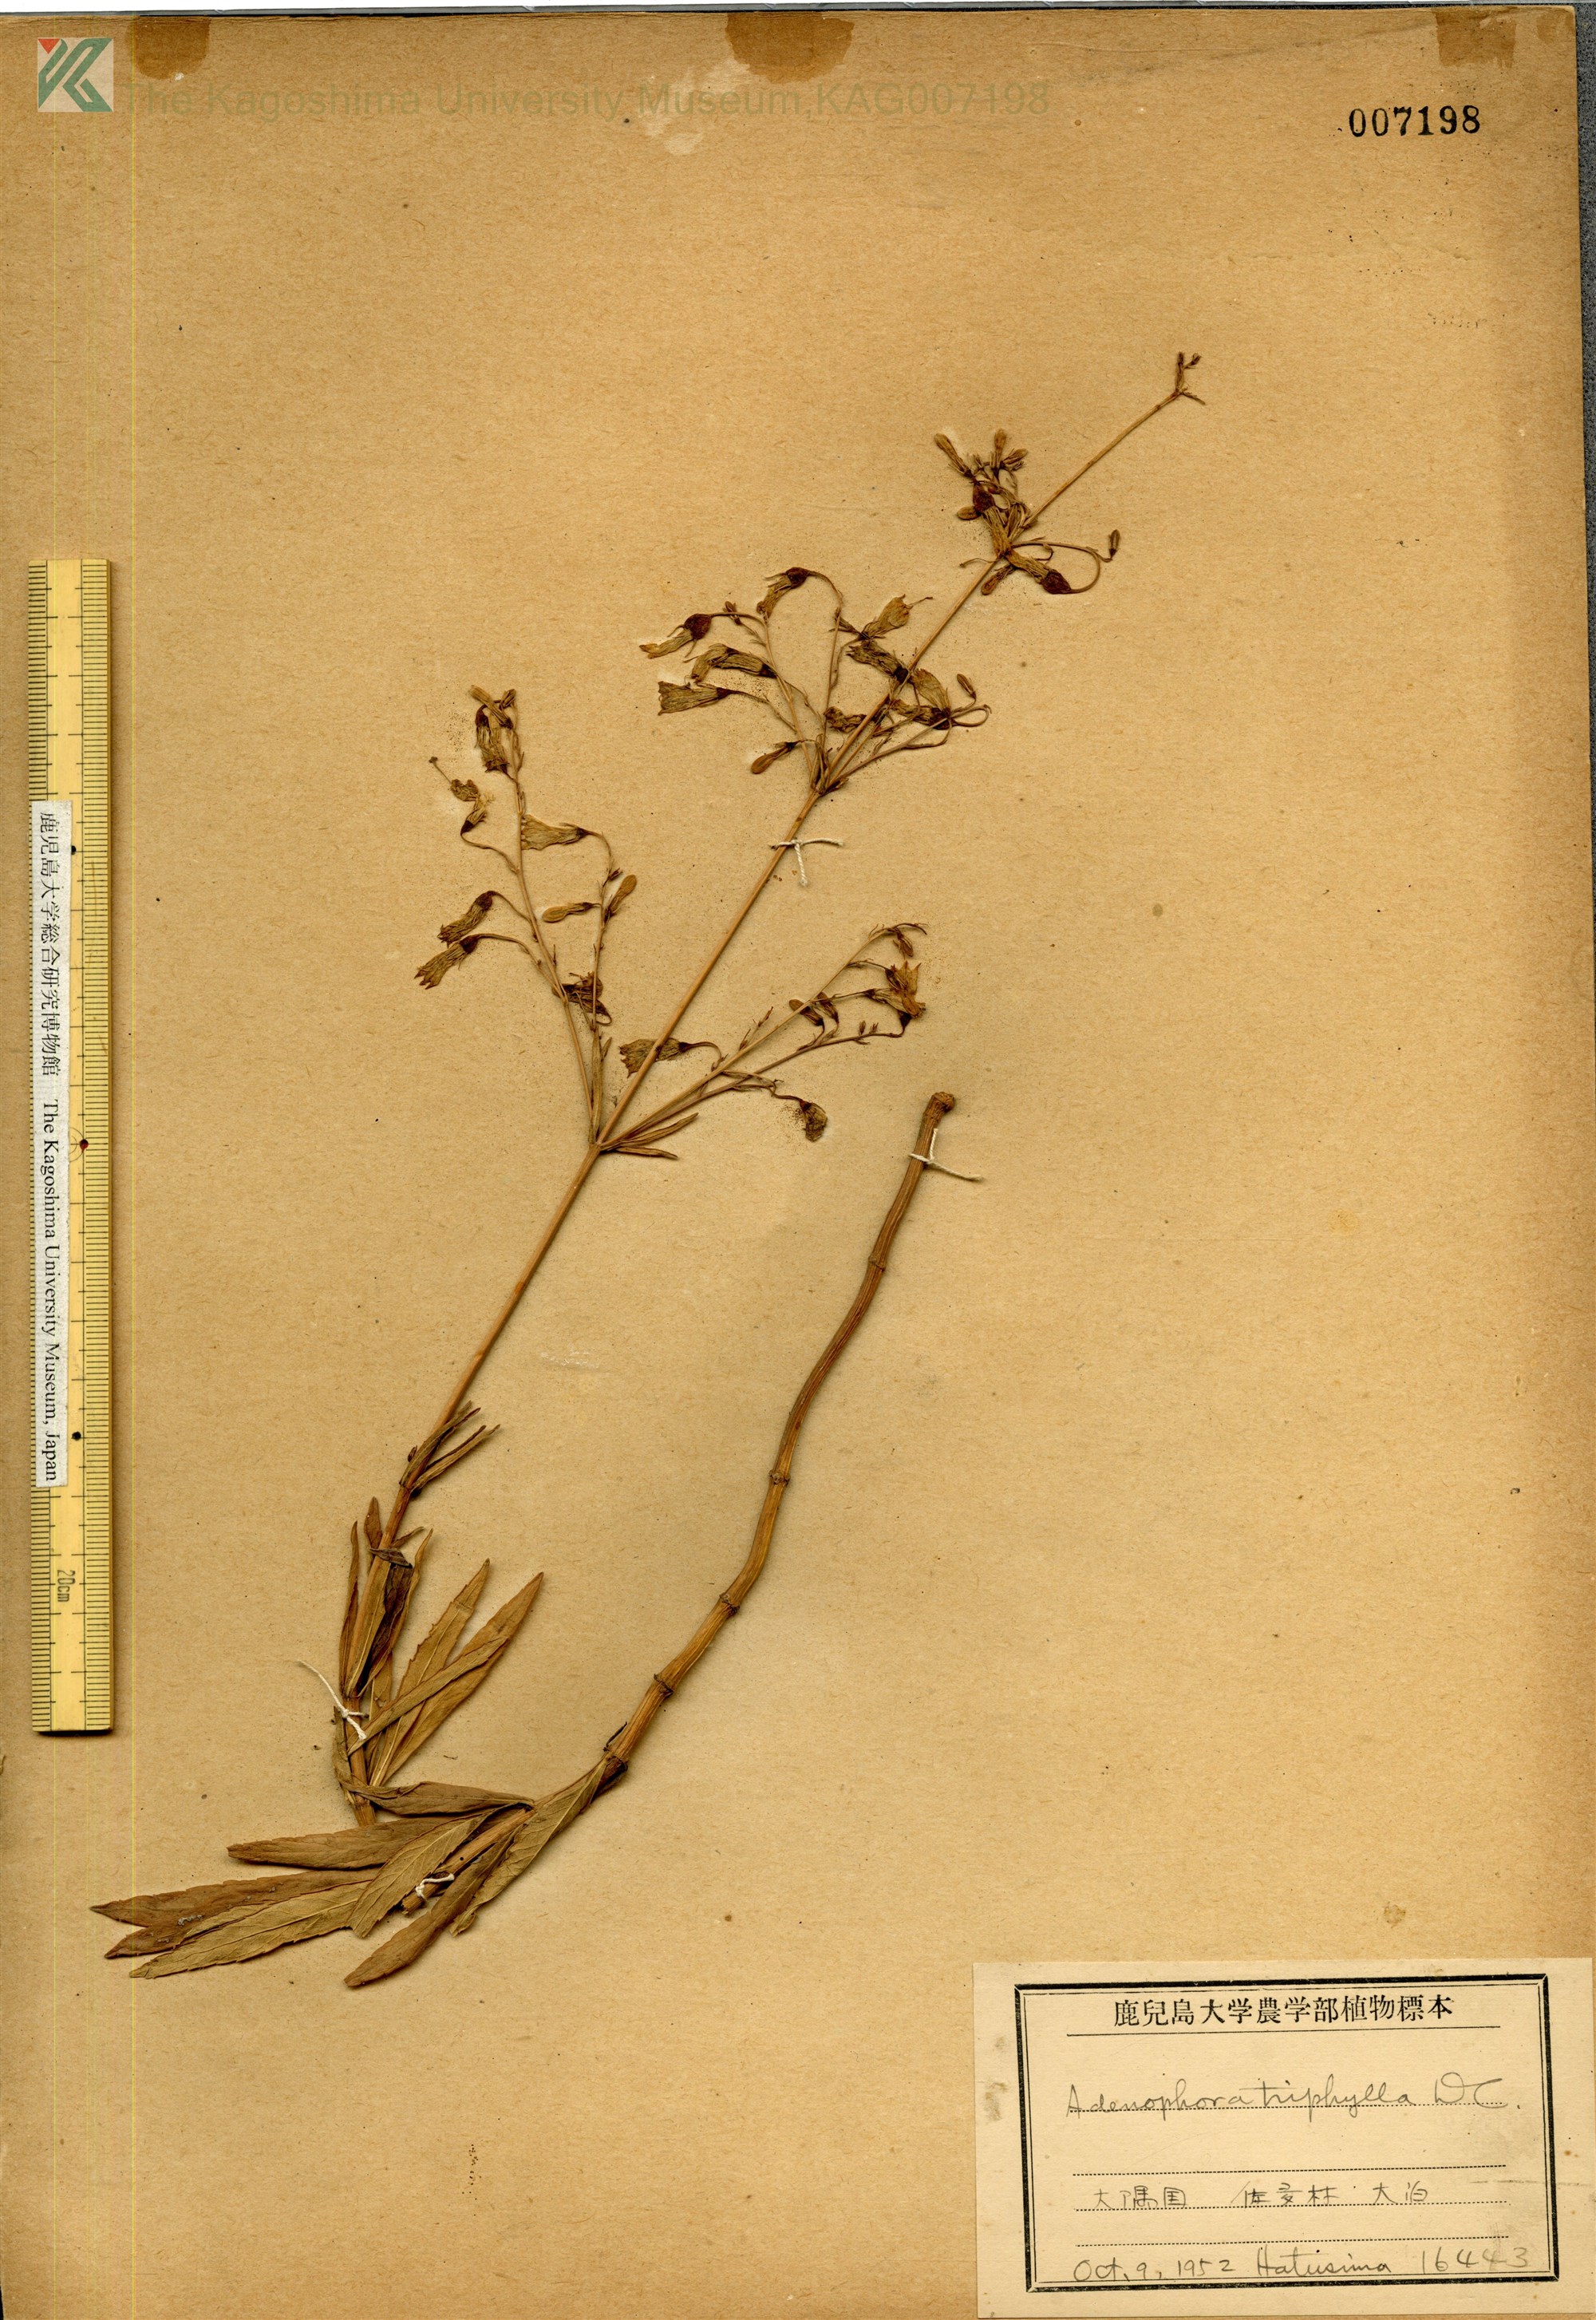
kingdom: Plantae
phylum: Tracheophyta
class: Magnoliopsida
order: Asterales
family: Campanulaceae
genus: Adenophora
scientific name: Adenophora triphylla
